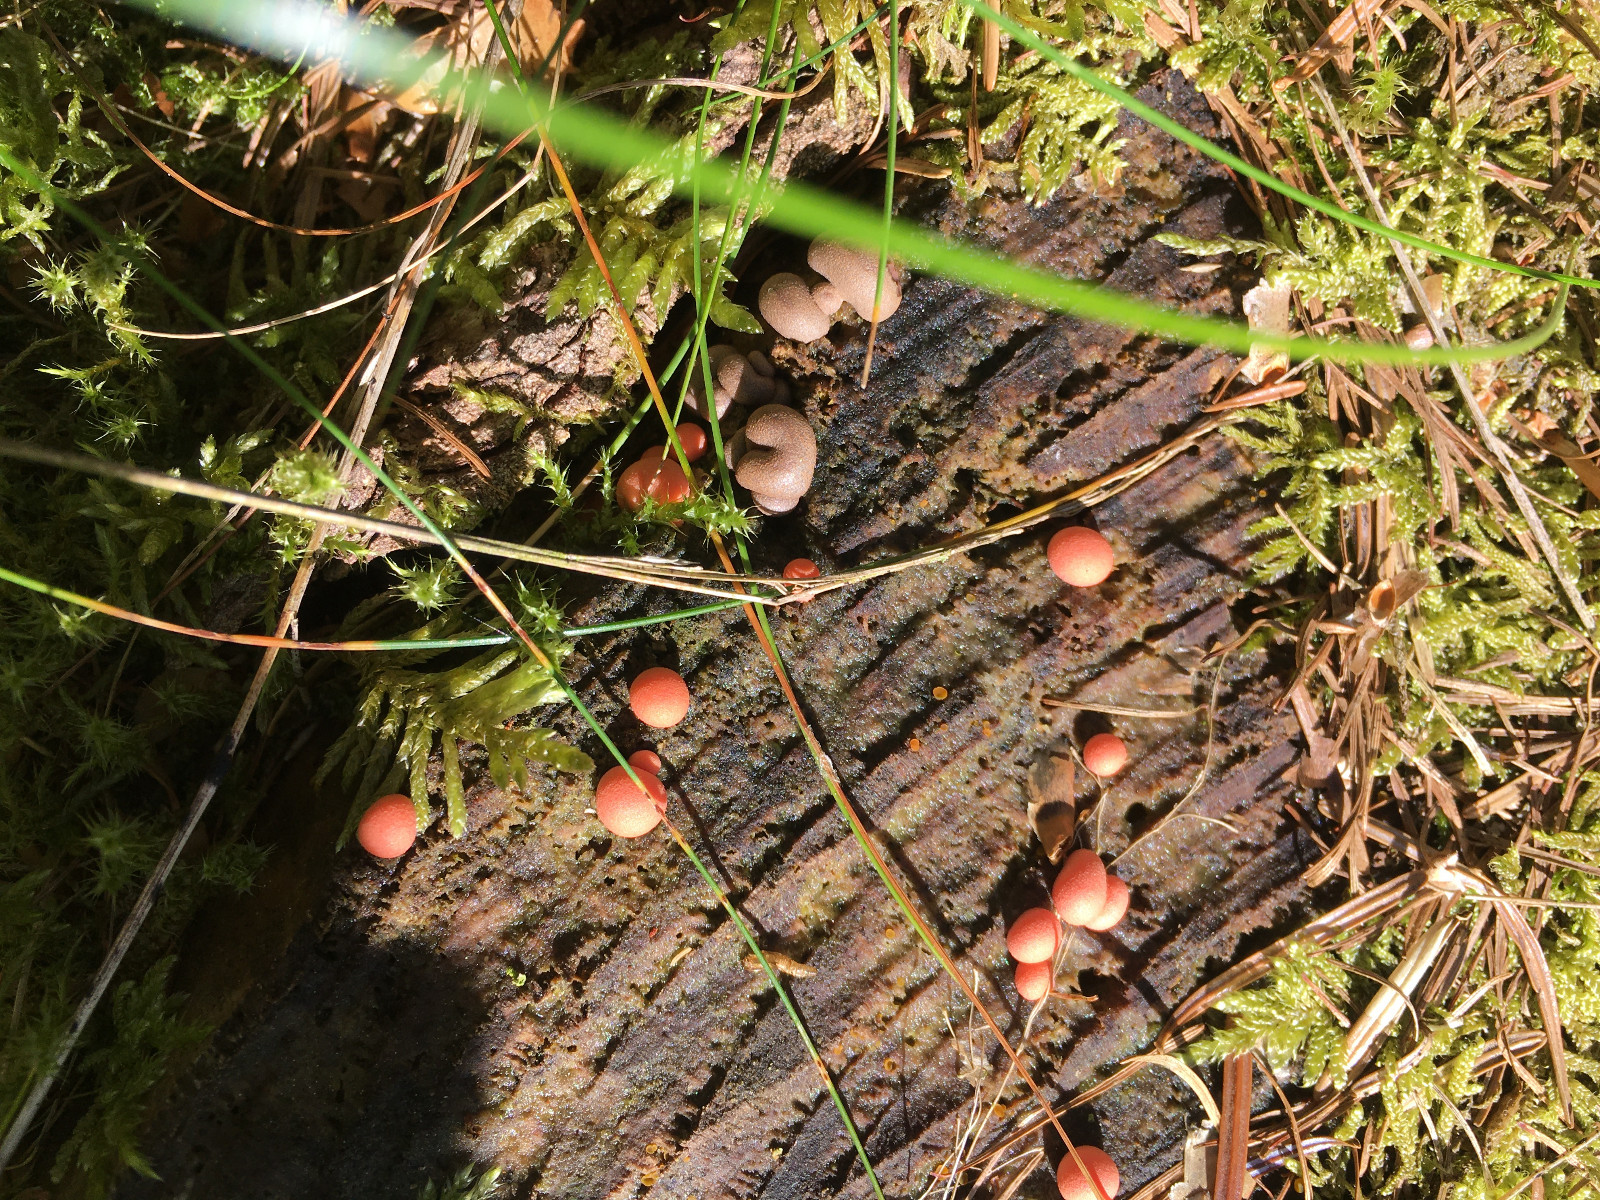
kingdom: Protozoa
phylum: Mycetozoa
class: Myxomycetes
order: Cribrariales
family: Tubiferaceae
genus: Lycogala
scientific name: Lycogala epidendrum
